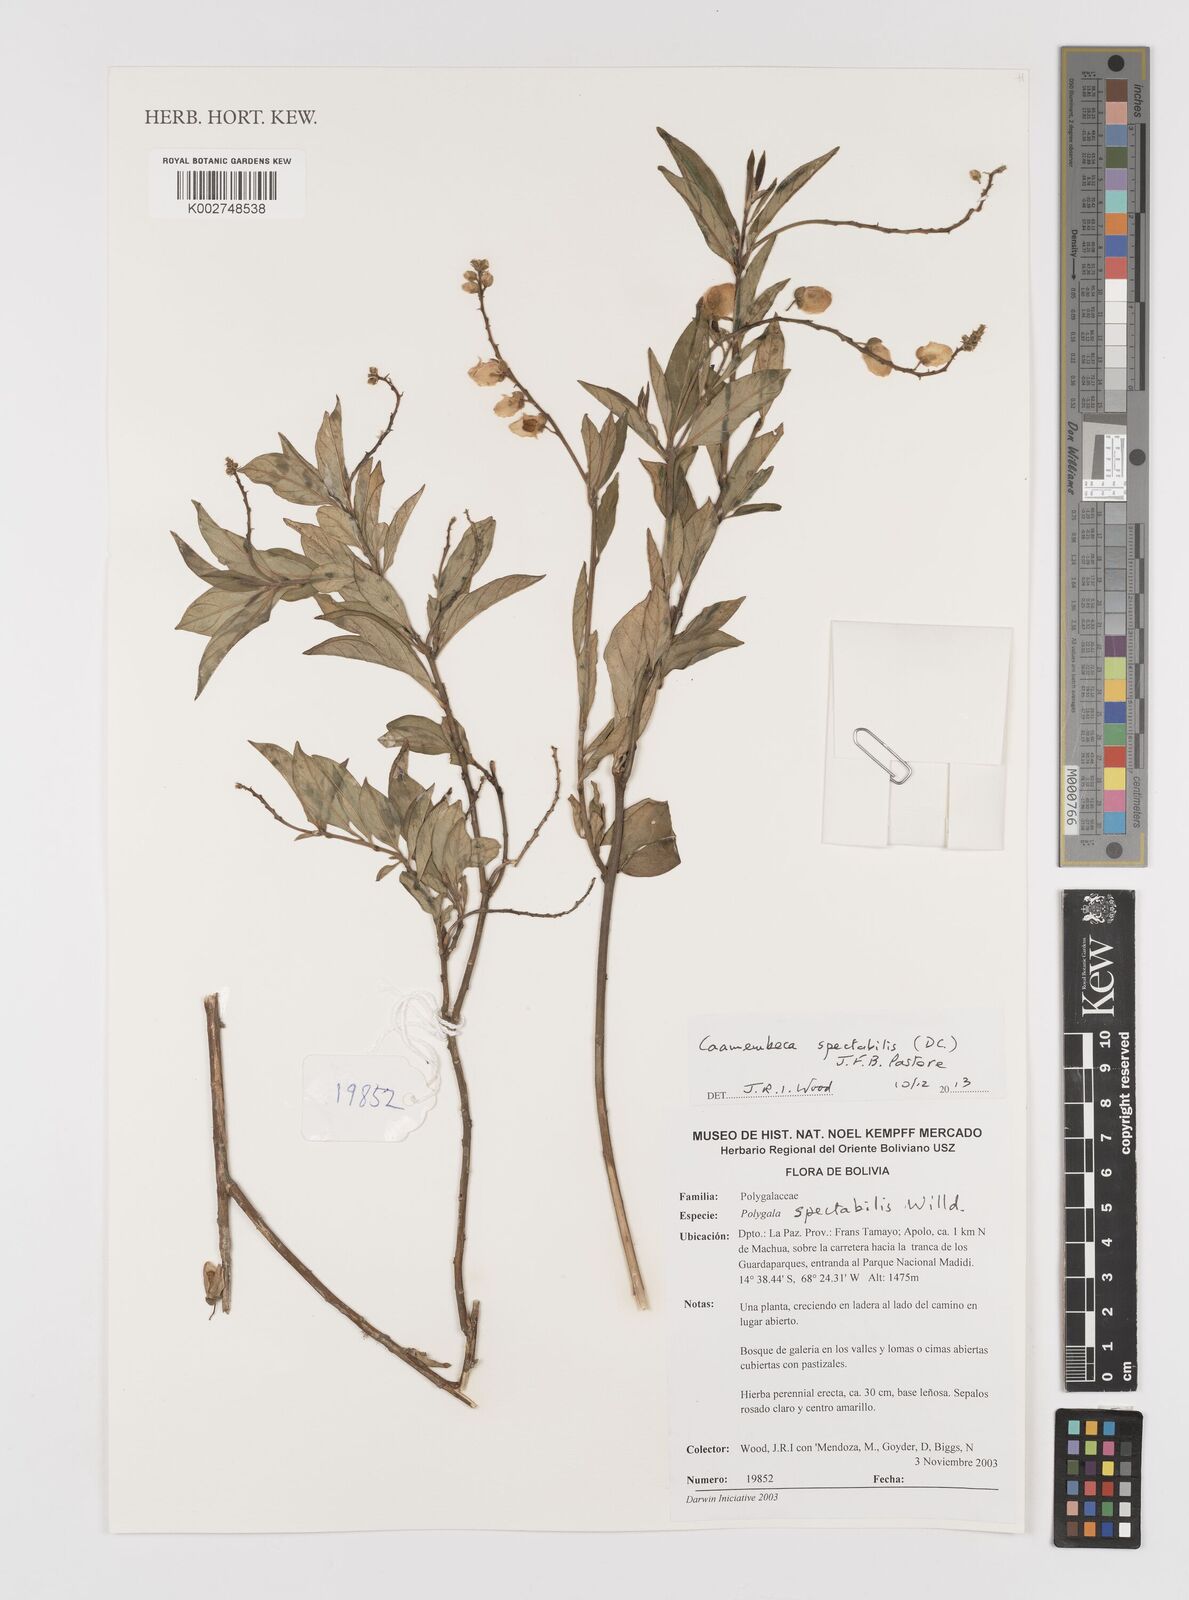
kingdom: Plantae
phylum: Tracheophyta
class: Magnoliopsida
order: Fabales
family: Polygalaceae
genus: Caamembeca
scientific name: Caamembeca spectabilis
